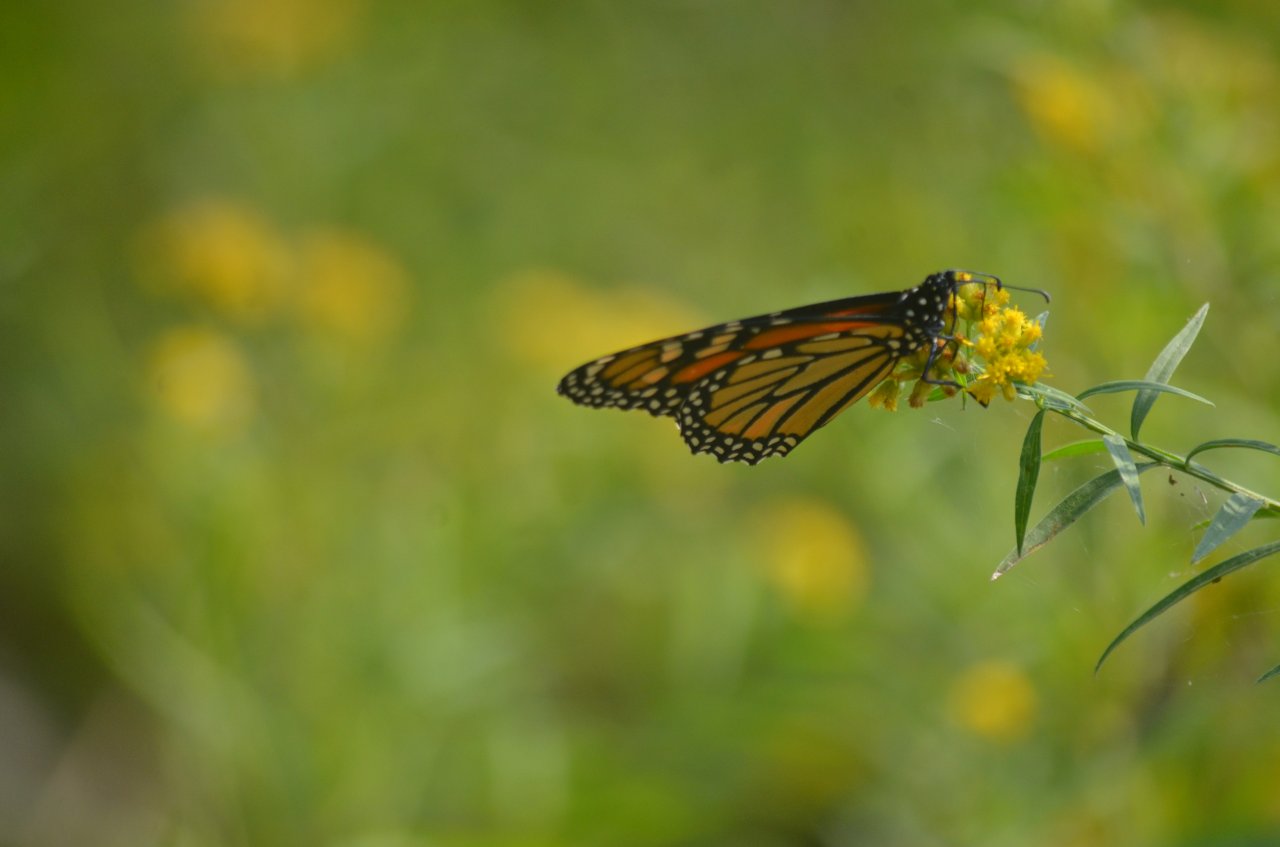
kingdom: Animalia
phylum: Arthropoda
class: Insecta
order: Lepidoptera
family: Nymphalidae
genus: Danaus
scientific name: Danaus plexippus
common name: Monarch
